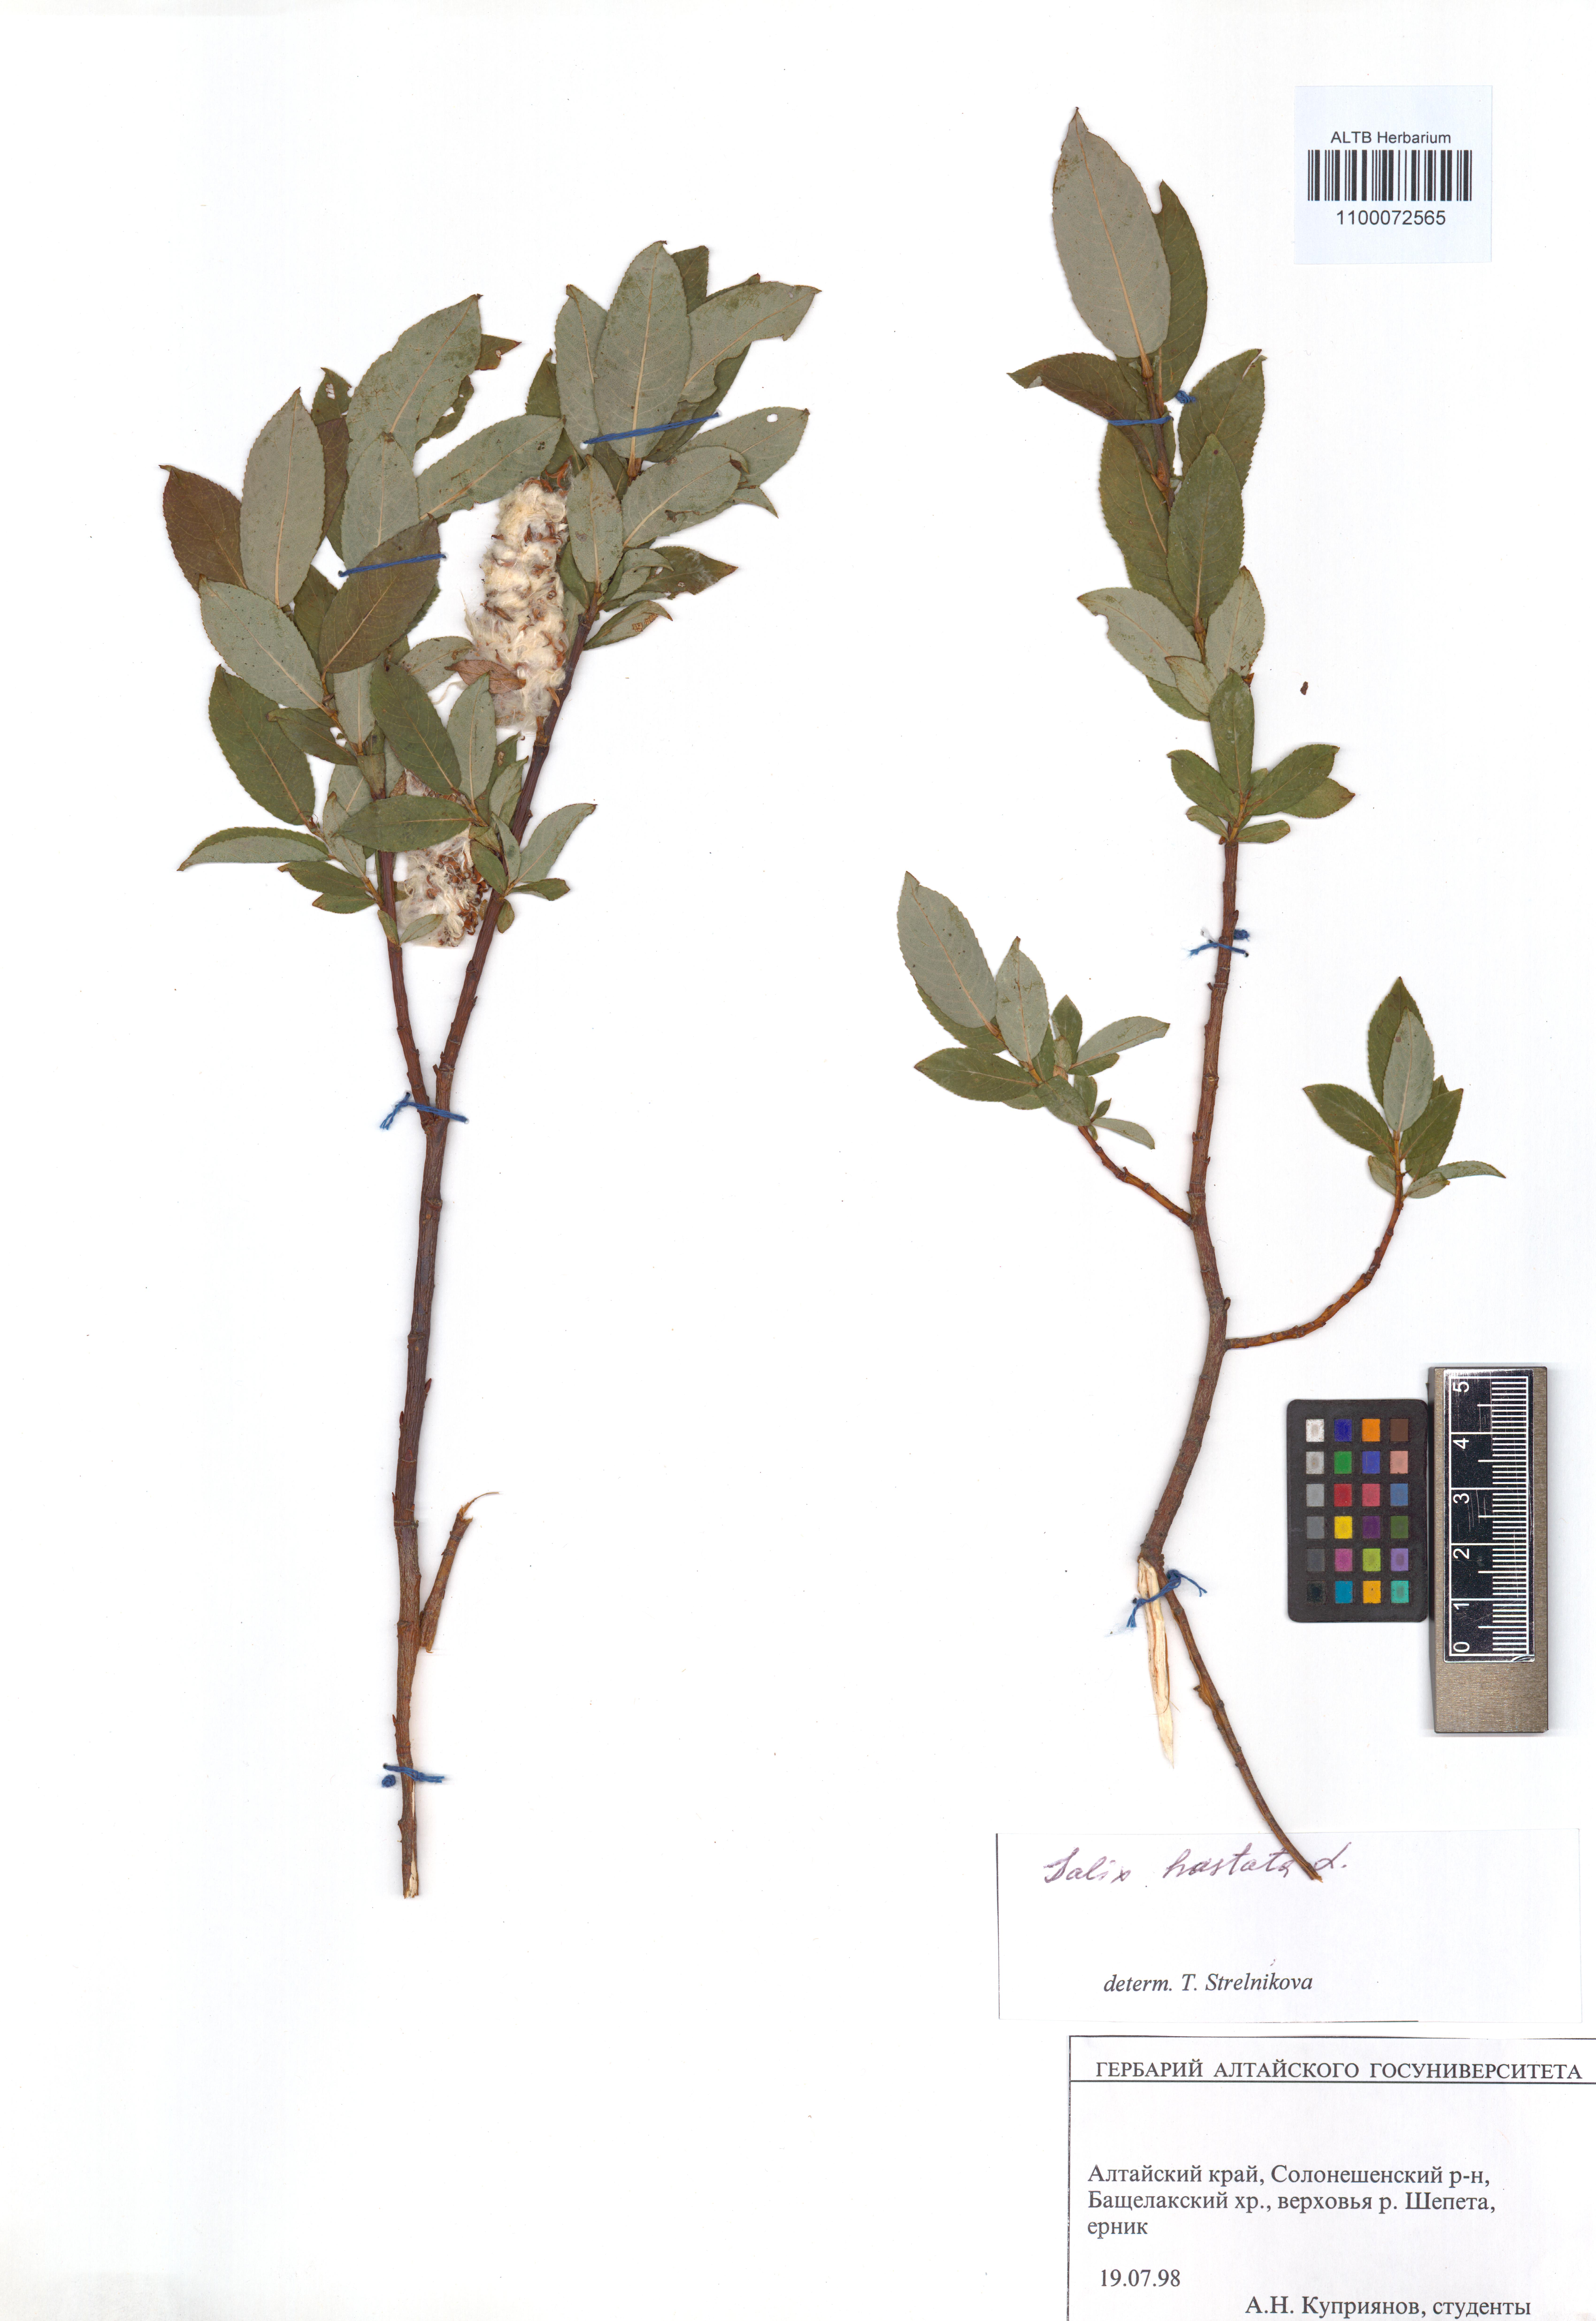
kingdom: Plantae
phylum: Tracheophyta
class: Magnoliopsida
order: Malpighiales
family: Salicaceae
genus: Salix
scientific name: Salix hastata
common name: Halberd willow
